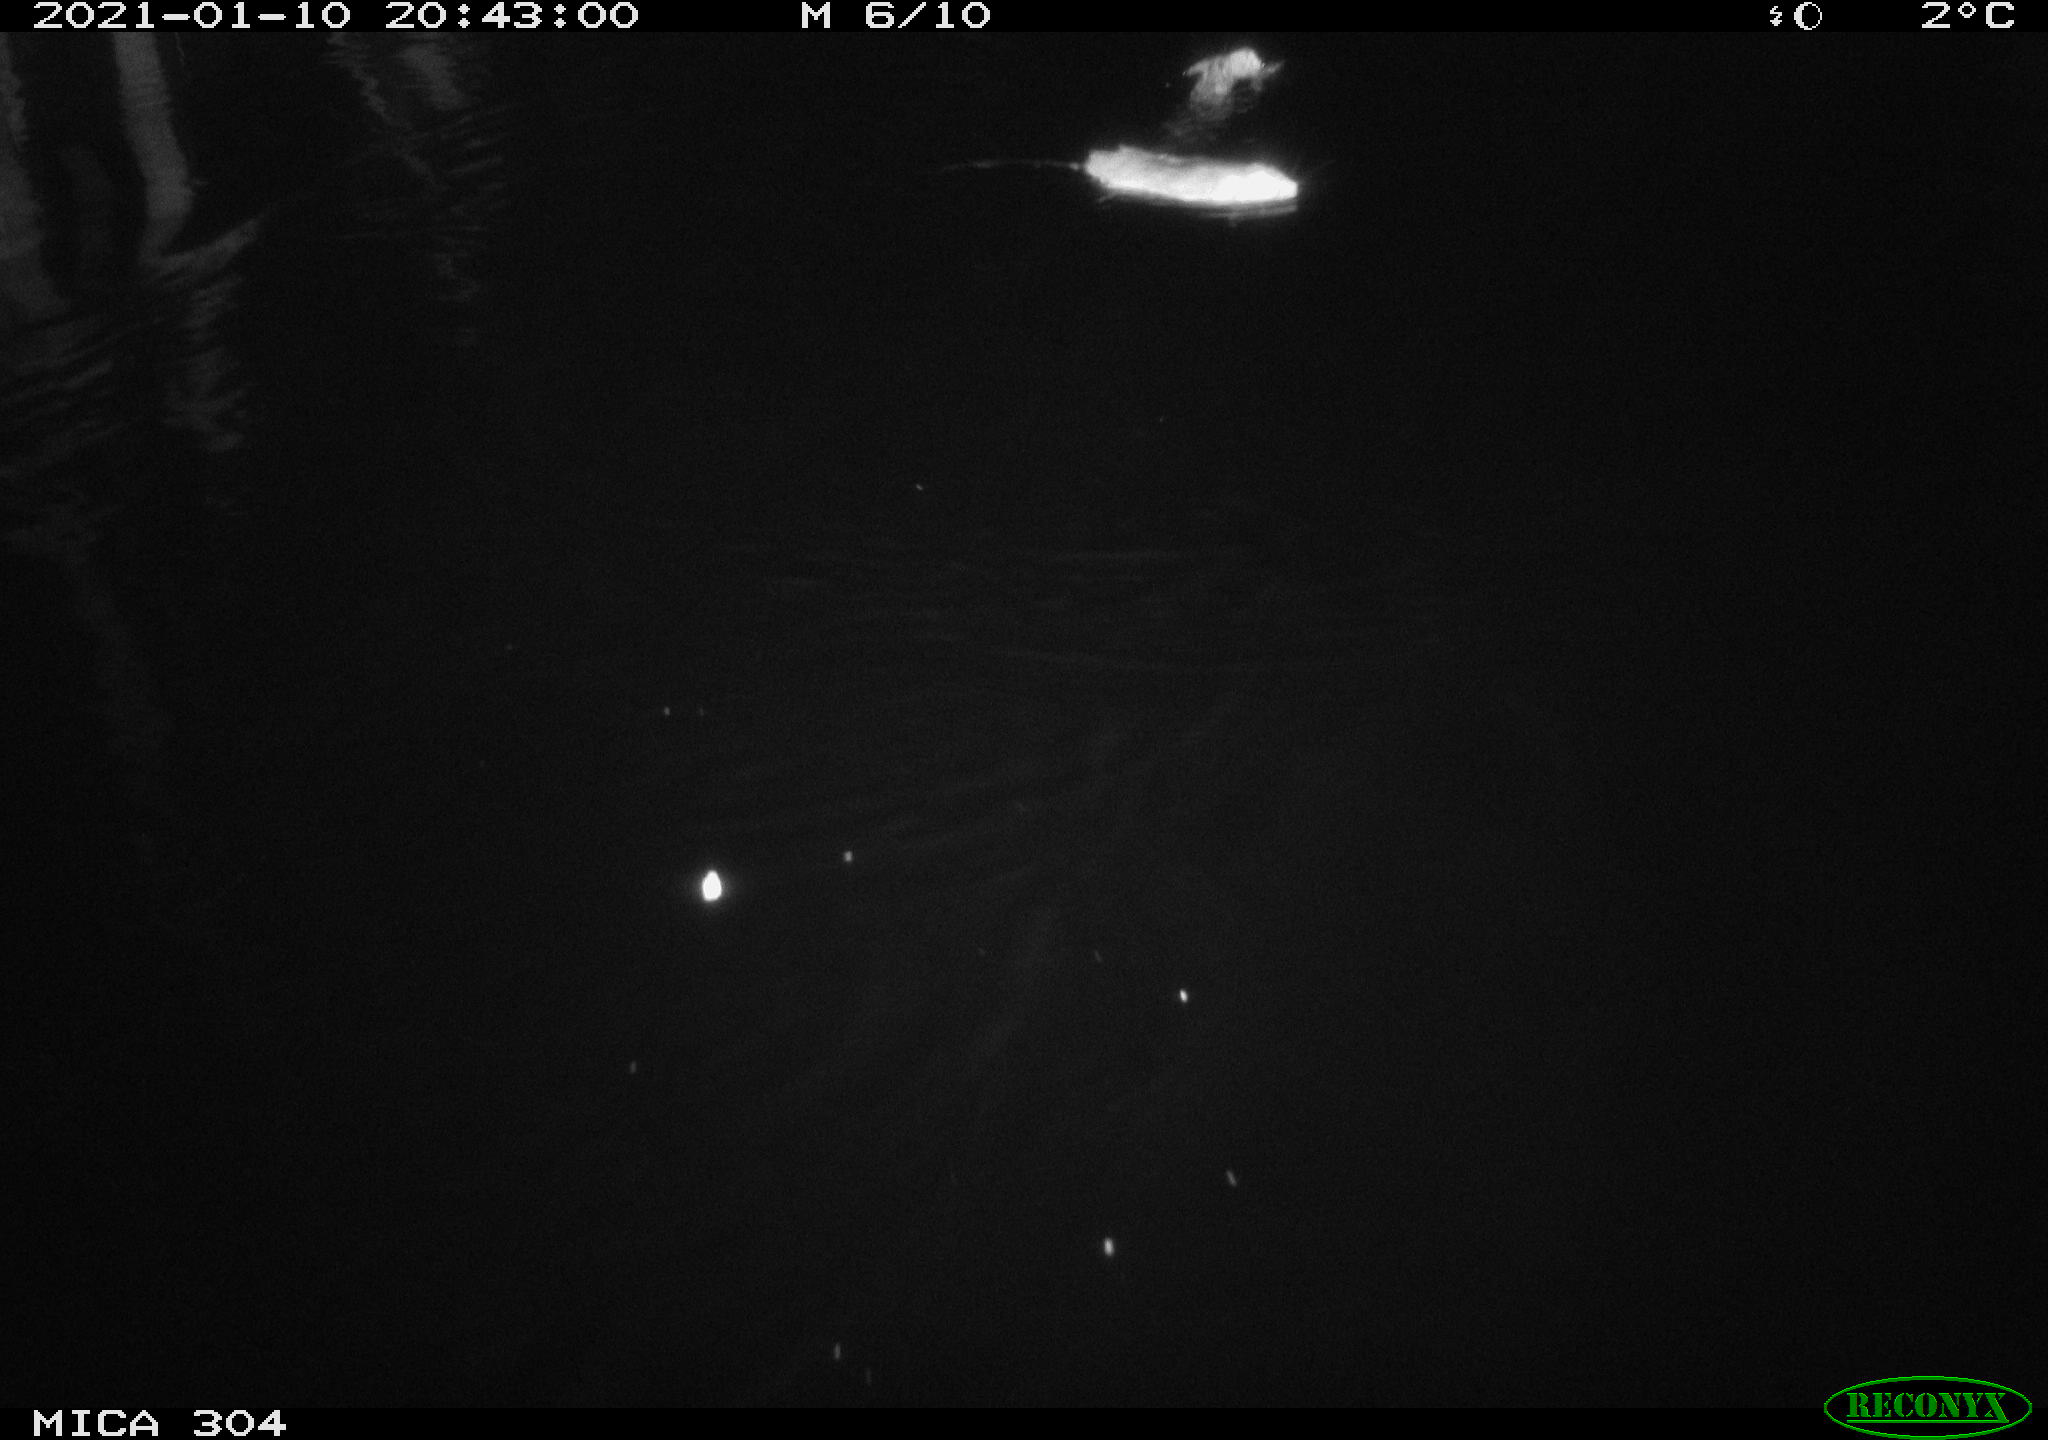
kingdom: Animalia
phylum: Chordata
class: Mammalia
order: Rodentia
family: Muridae
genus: Rattus
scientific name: Rattus norvegicus
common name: Brown rat
